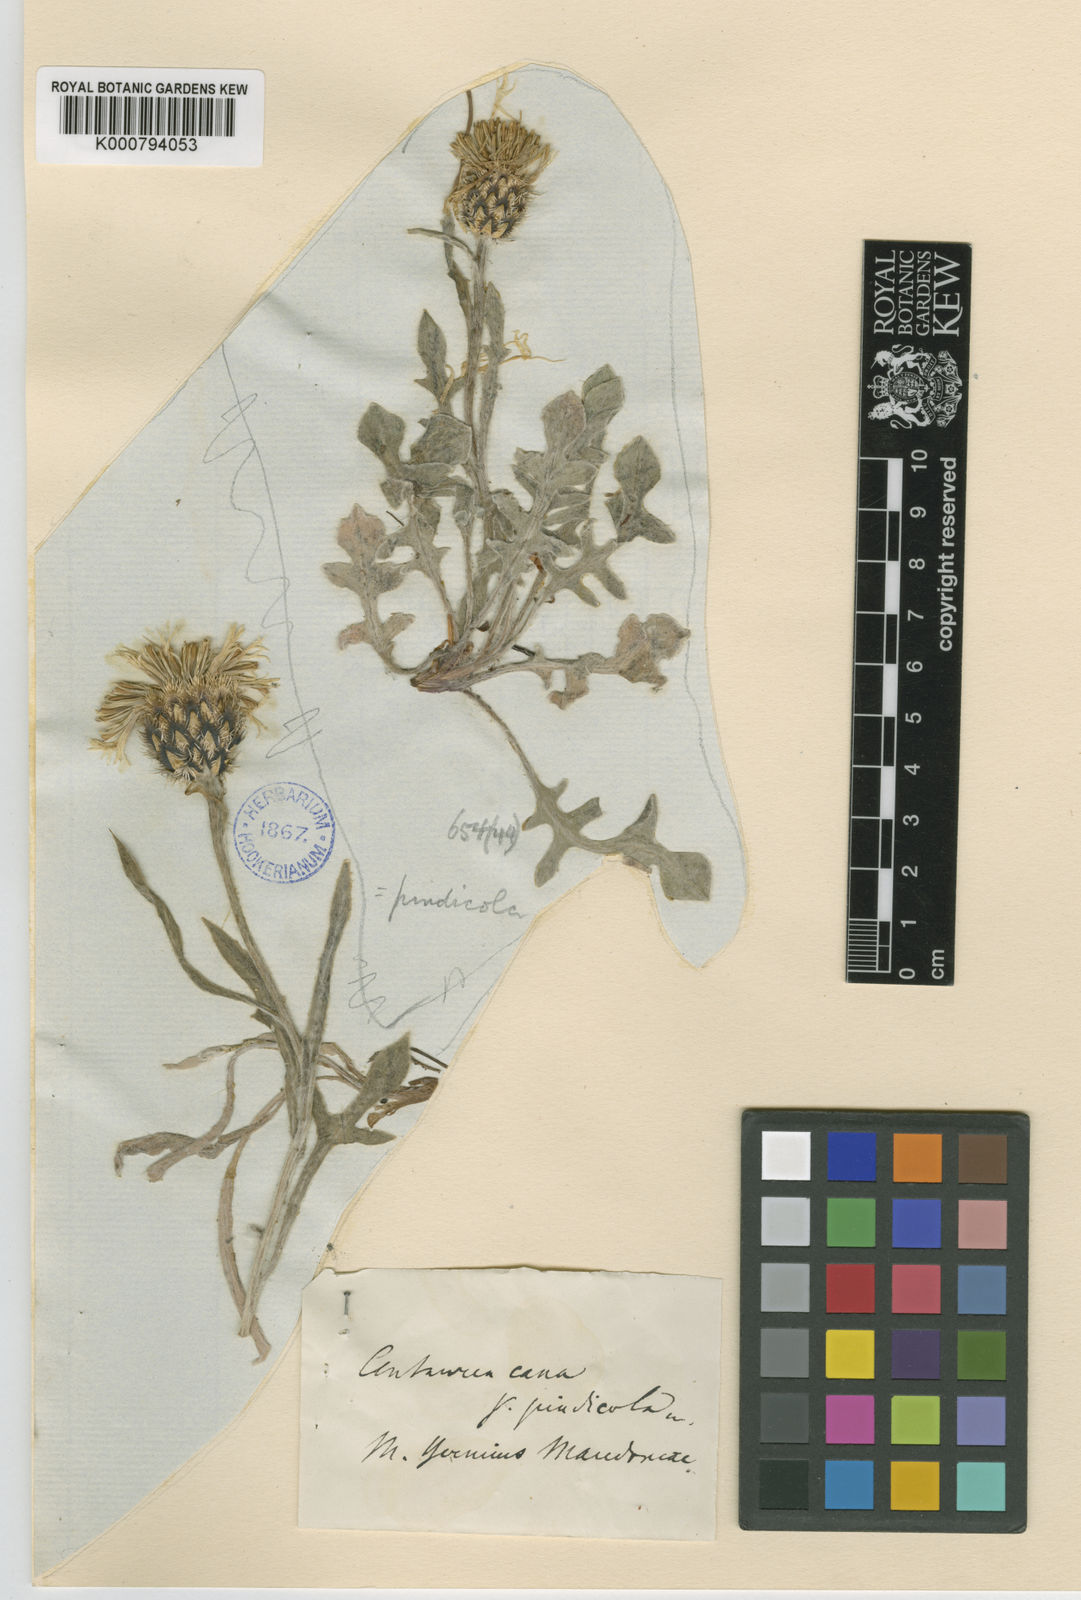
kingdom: Plantae
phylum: Tracheophyta
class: Magnoliopsida
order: Asterales
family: Asteraceae
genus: Centaurea
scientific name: Centaurea pindicola
